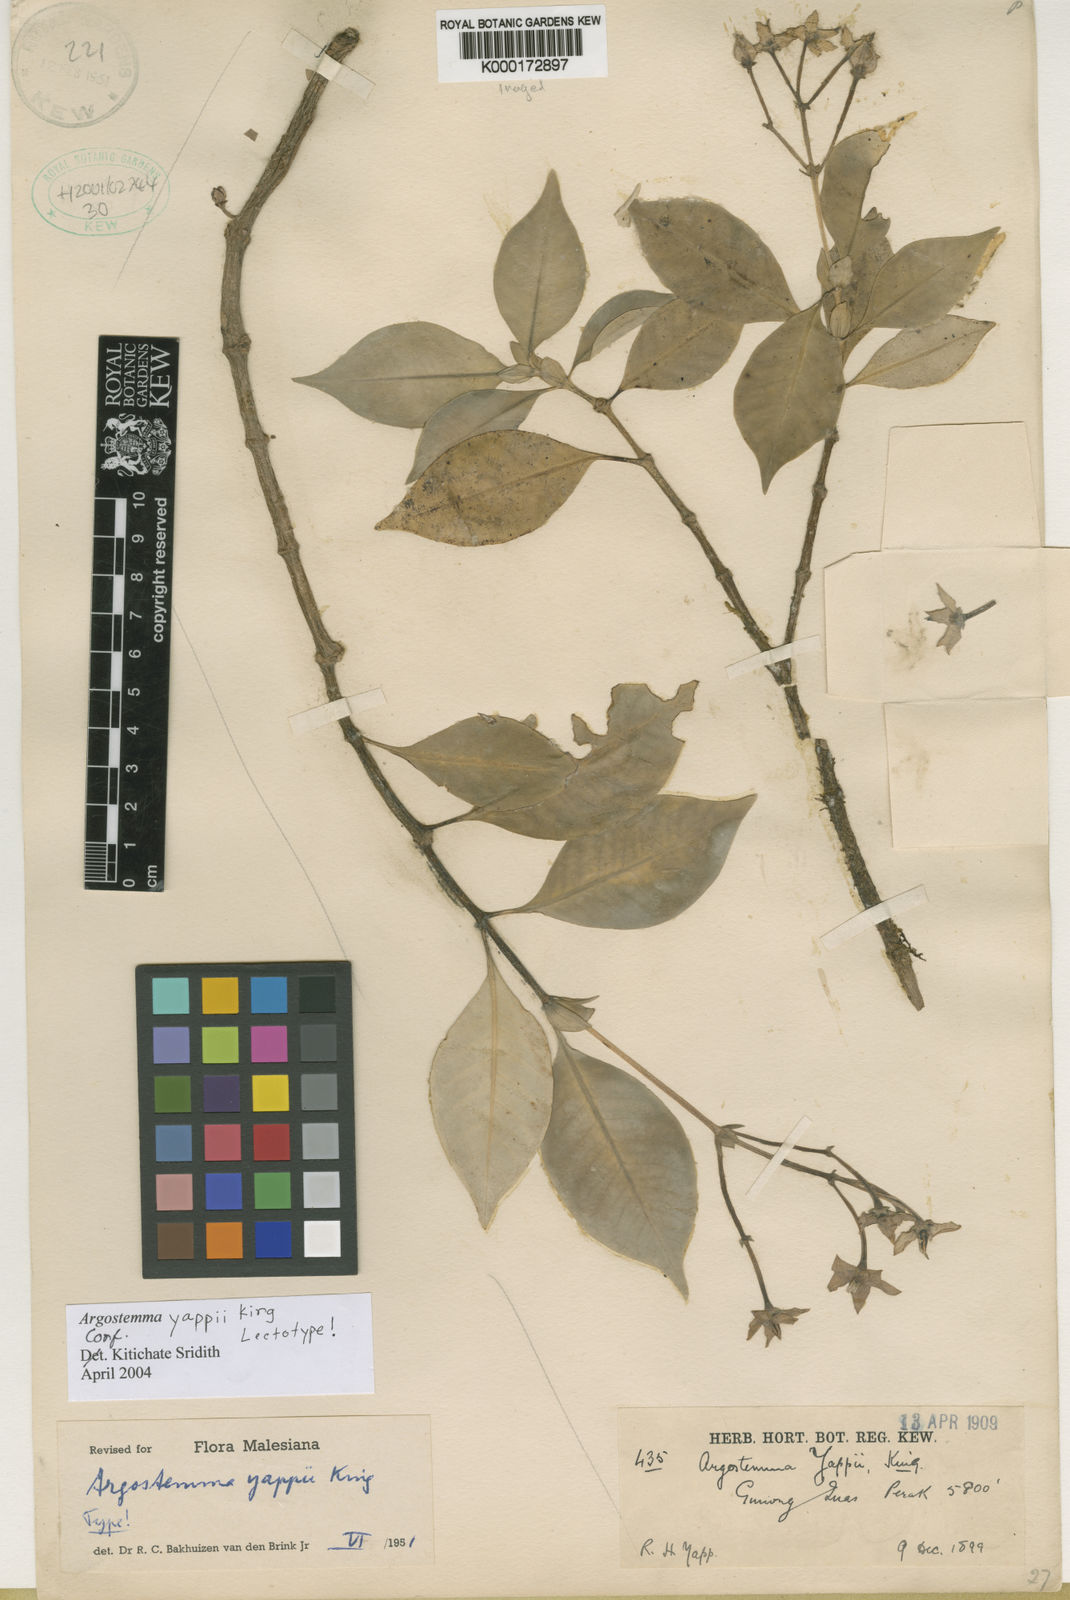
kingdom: Plantae
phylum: Tracheophyta
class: Magnoliopsida
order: Gentianales
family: Rubiaceae
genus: Argostemma
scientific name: Argostemma yappii
